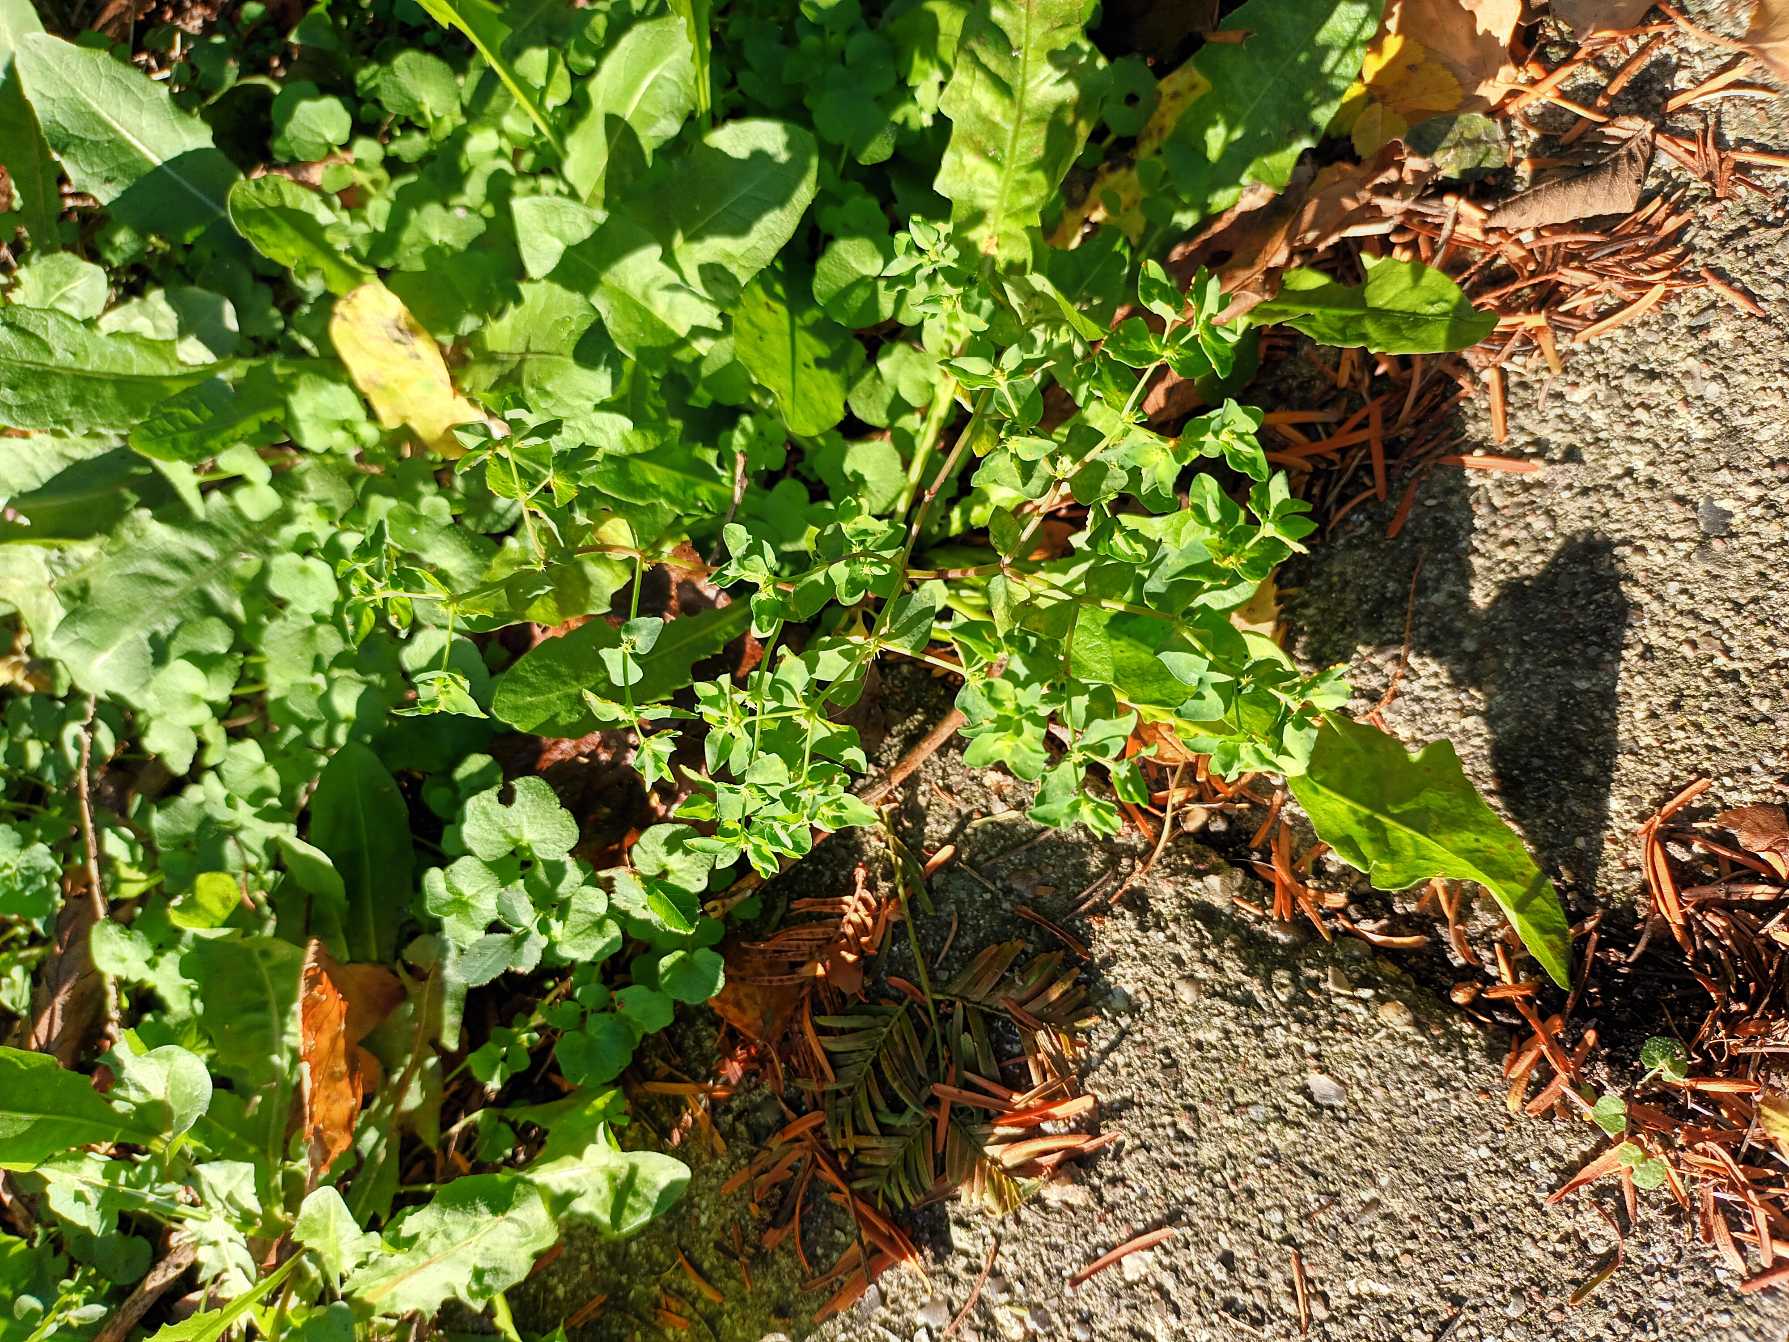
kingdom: Plantae
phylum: Tracheophyta
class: Magnoliopsida
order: Malpighiales
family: Euphorbiaceae
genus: Euphorbia
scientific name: Euphorbia peplus
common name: Gaffel-vortemælk
